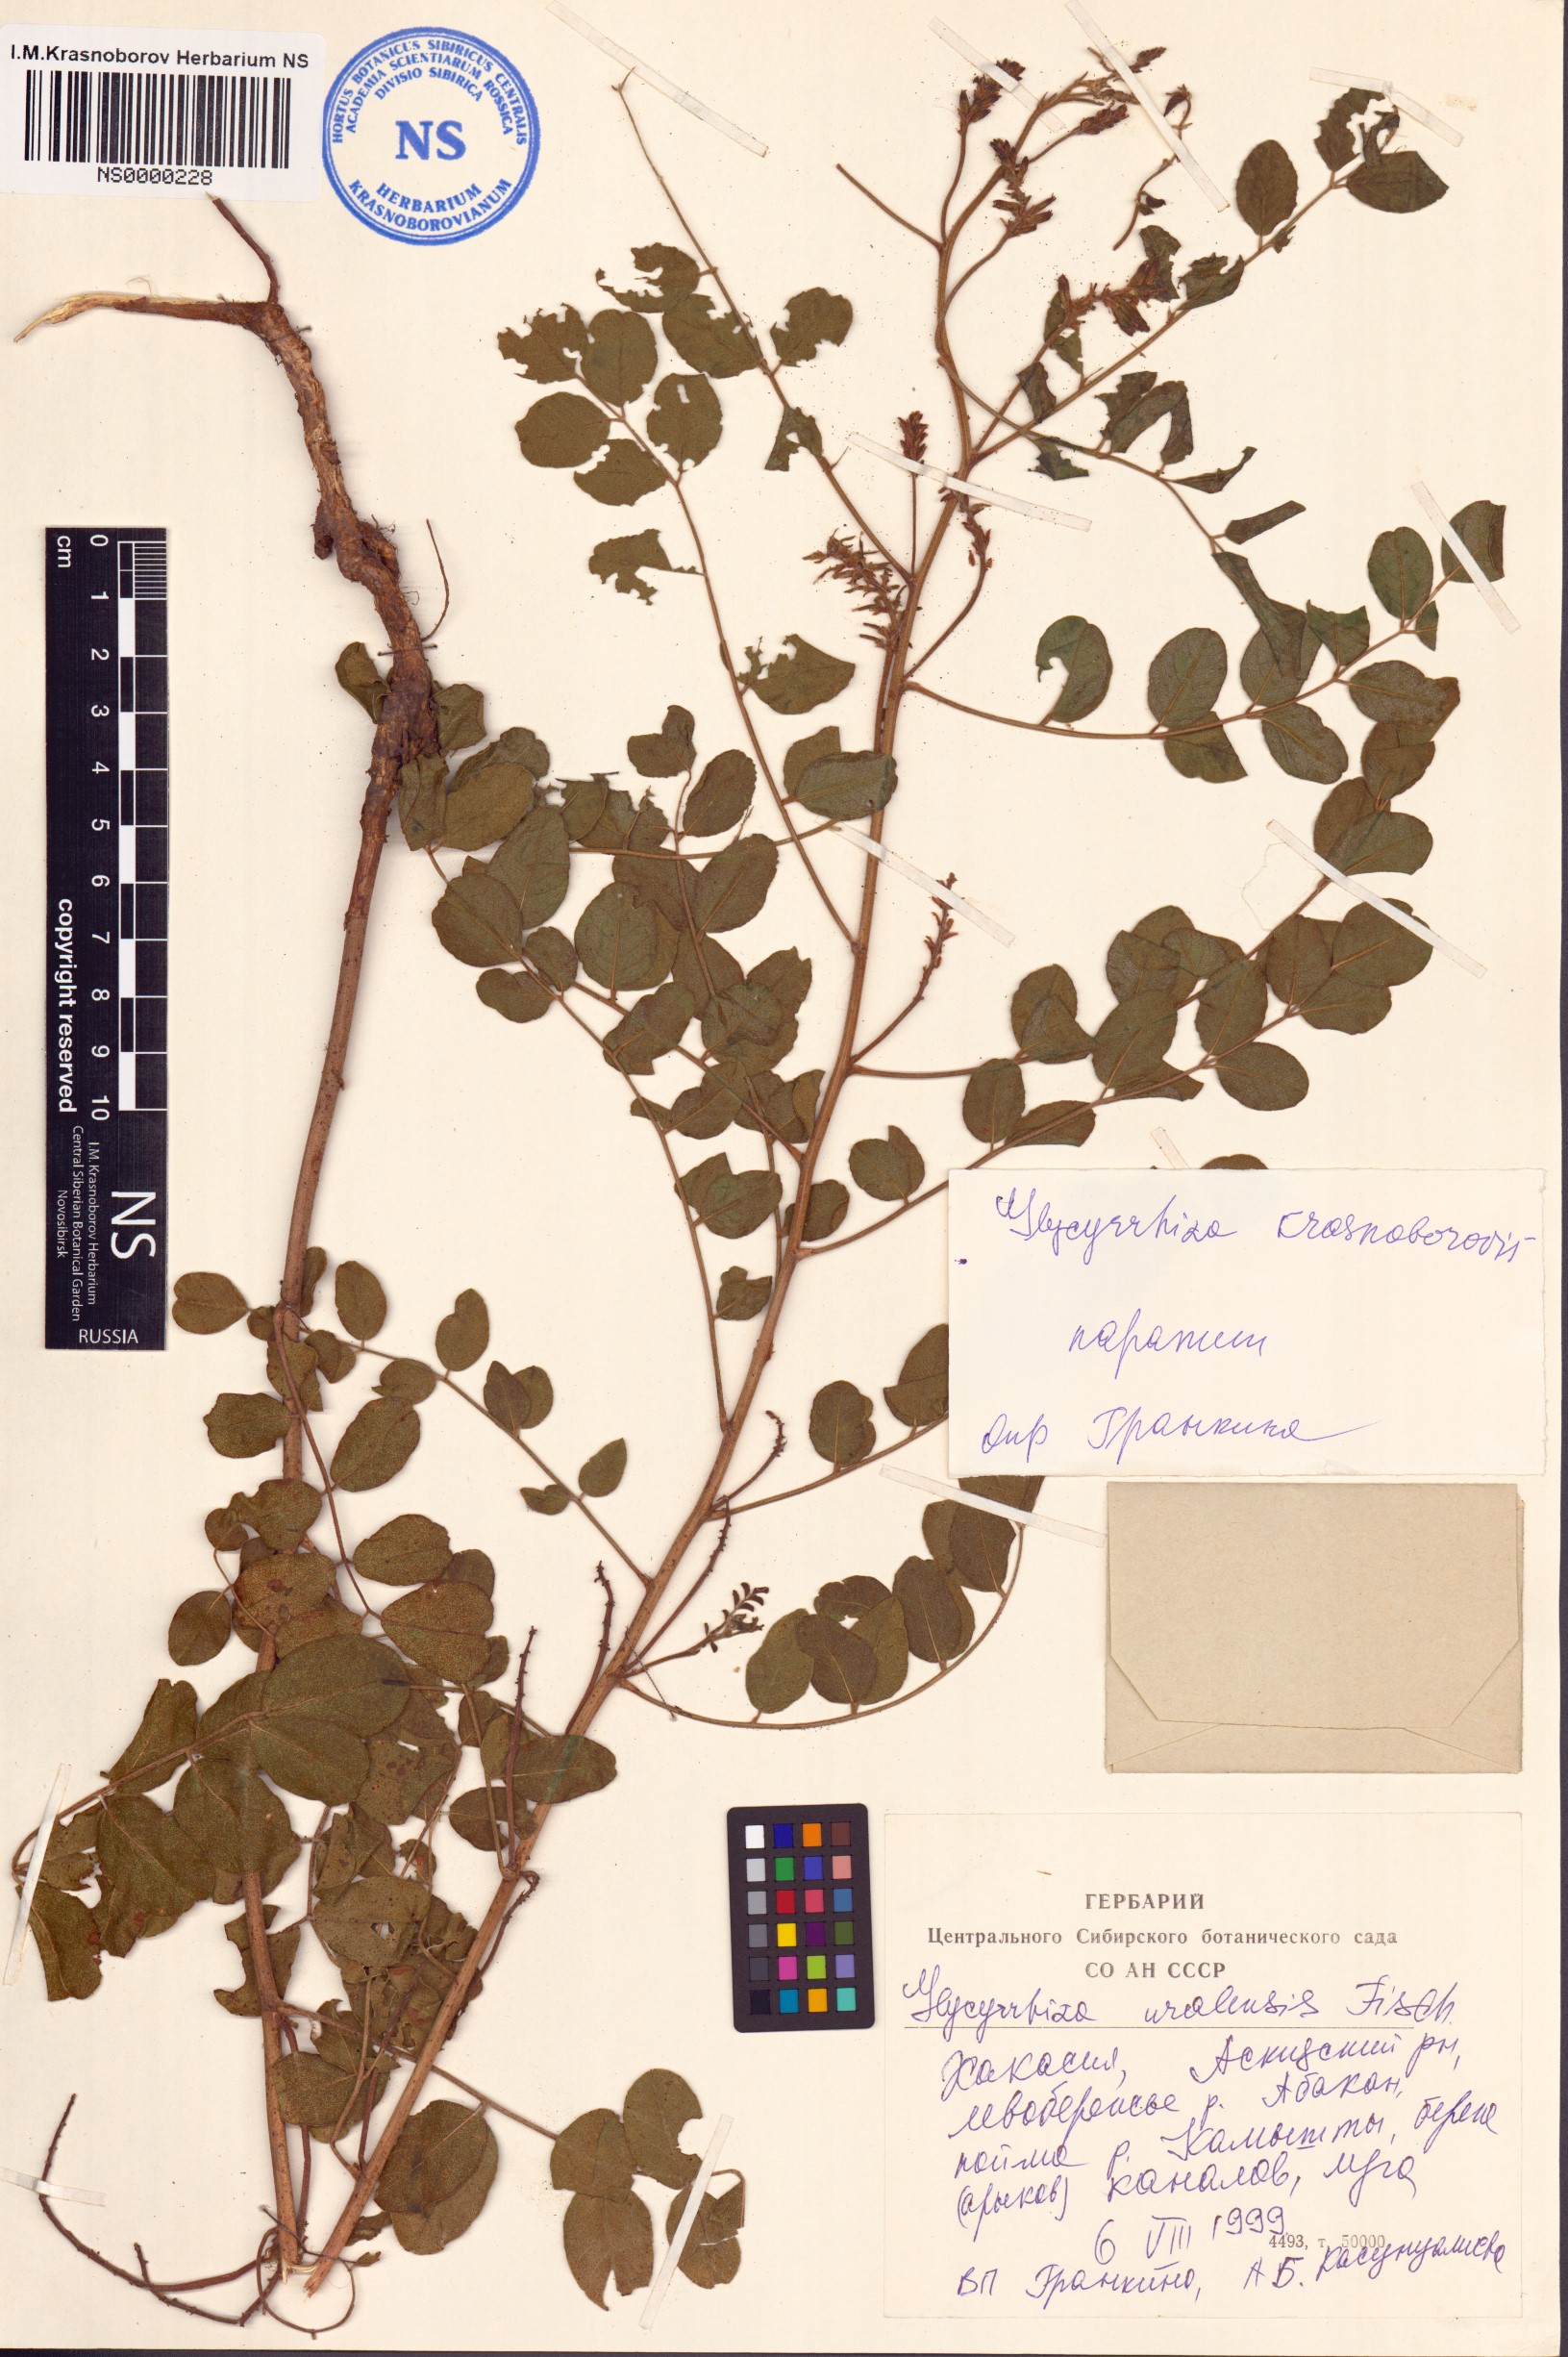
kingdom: Plantae
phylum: Tracheophyta
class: Magnoliopsida
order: Fabales
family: Fabaceae
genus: Glycyrrhiza
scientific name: Glycyrrhiza uralensis
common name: Chinese licorice
